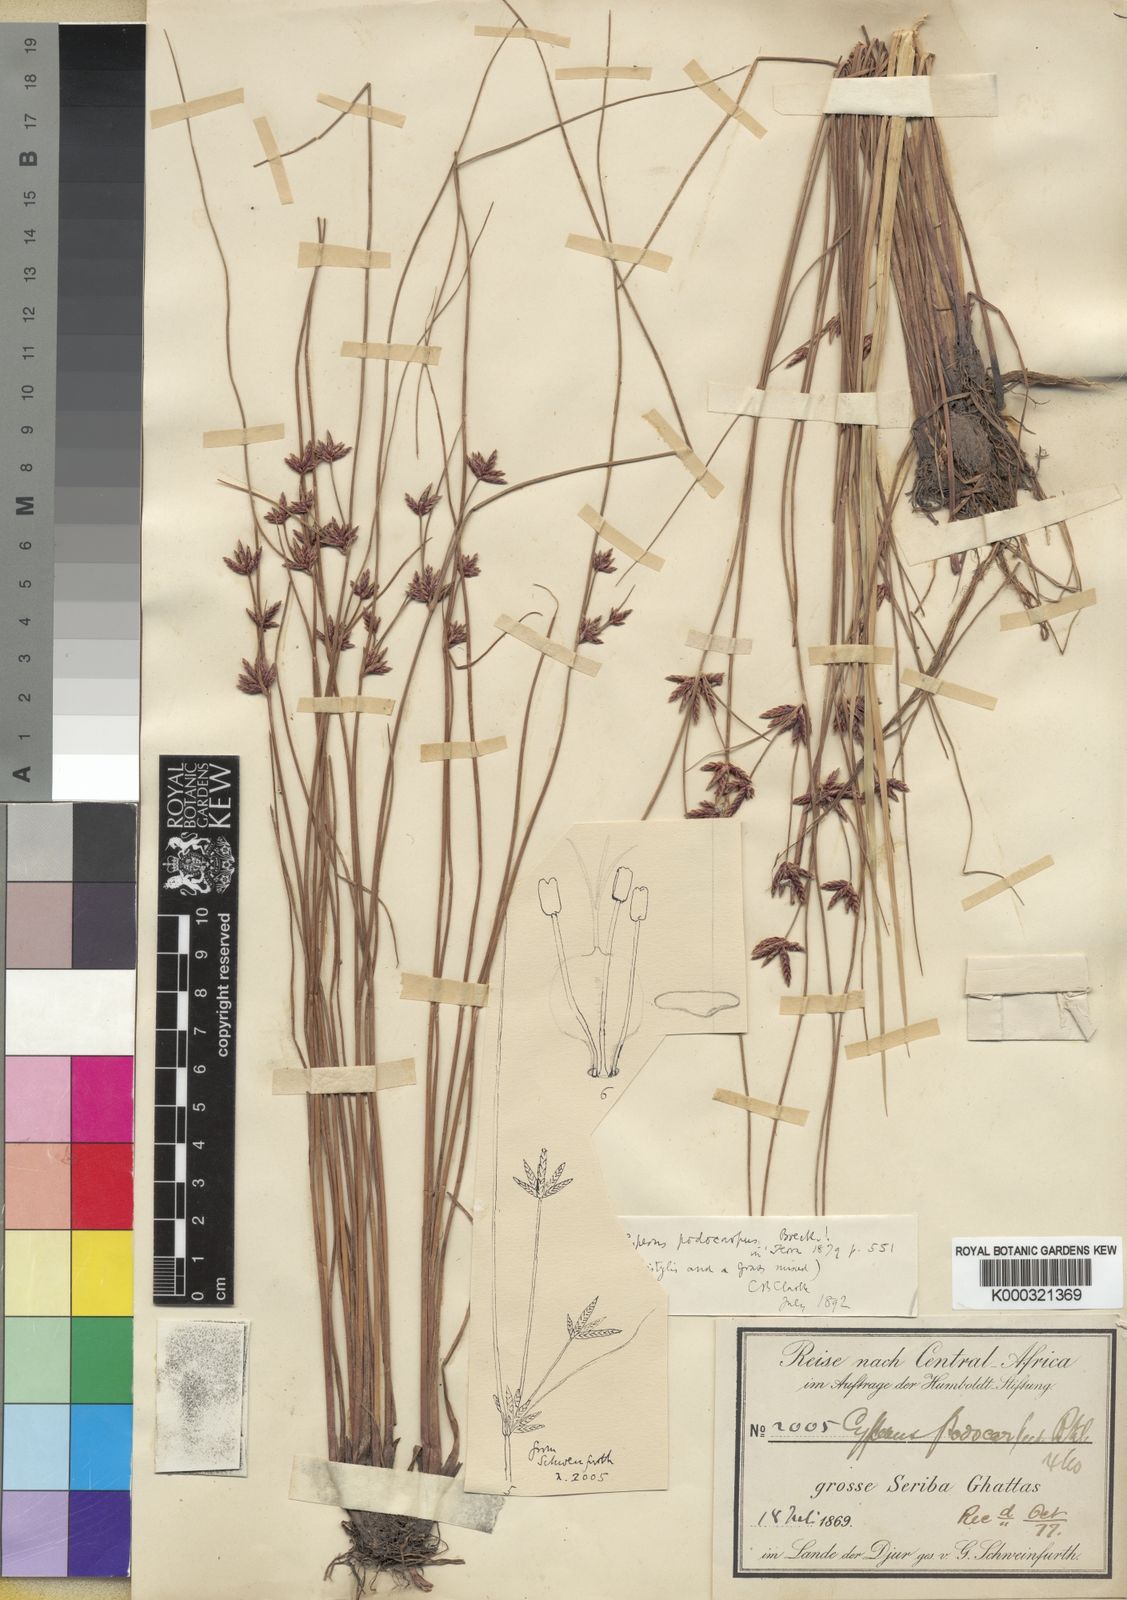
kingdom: Plantae
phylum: Tracheophyta
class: Liliopsida
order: Poales
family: Cyperaceae
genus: Cyperus
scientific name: Cyperus podocarpus
